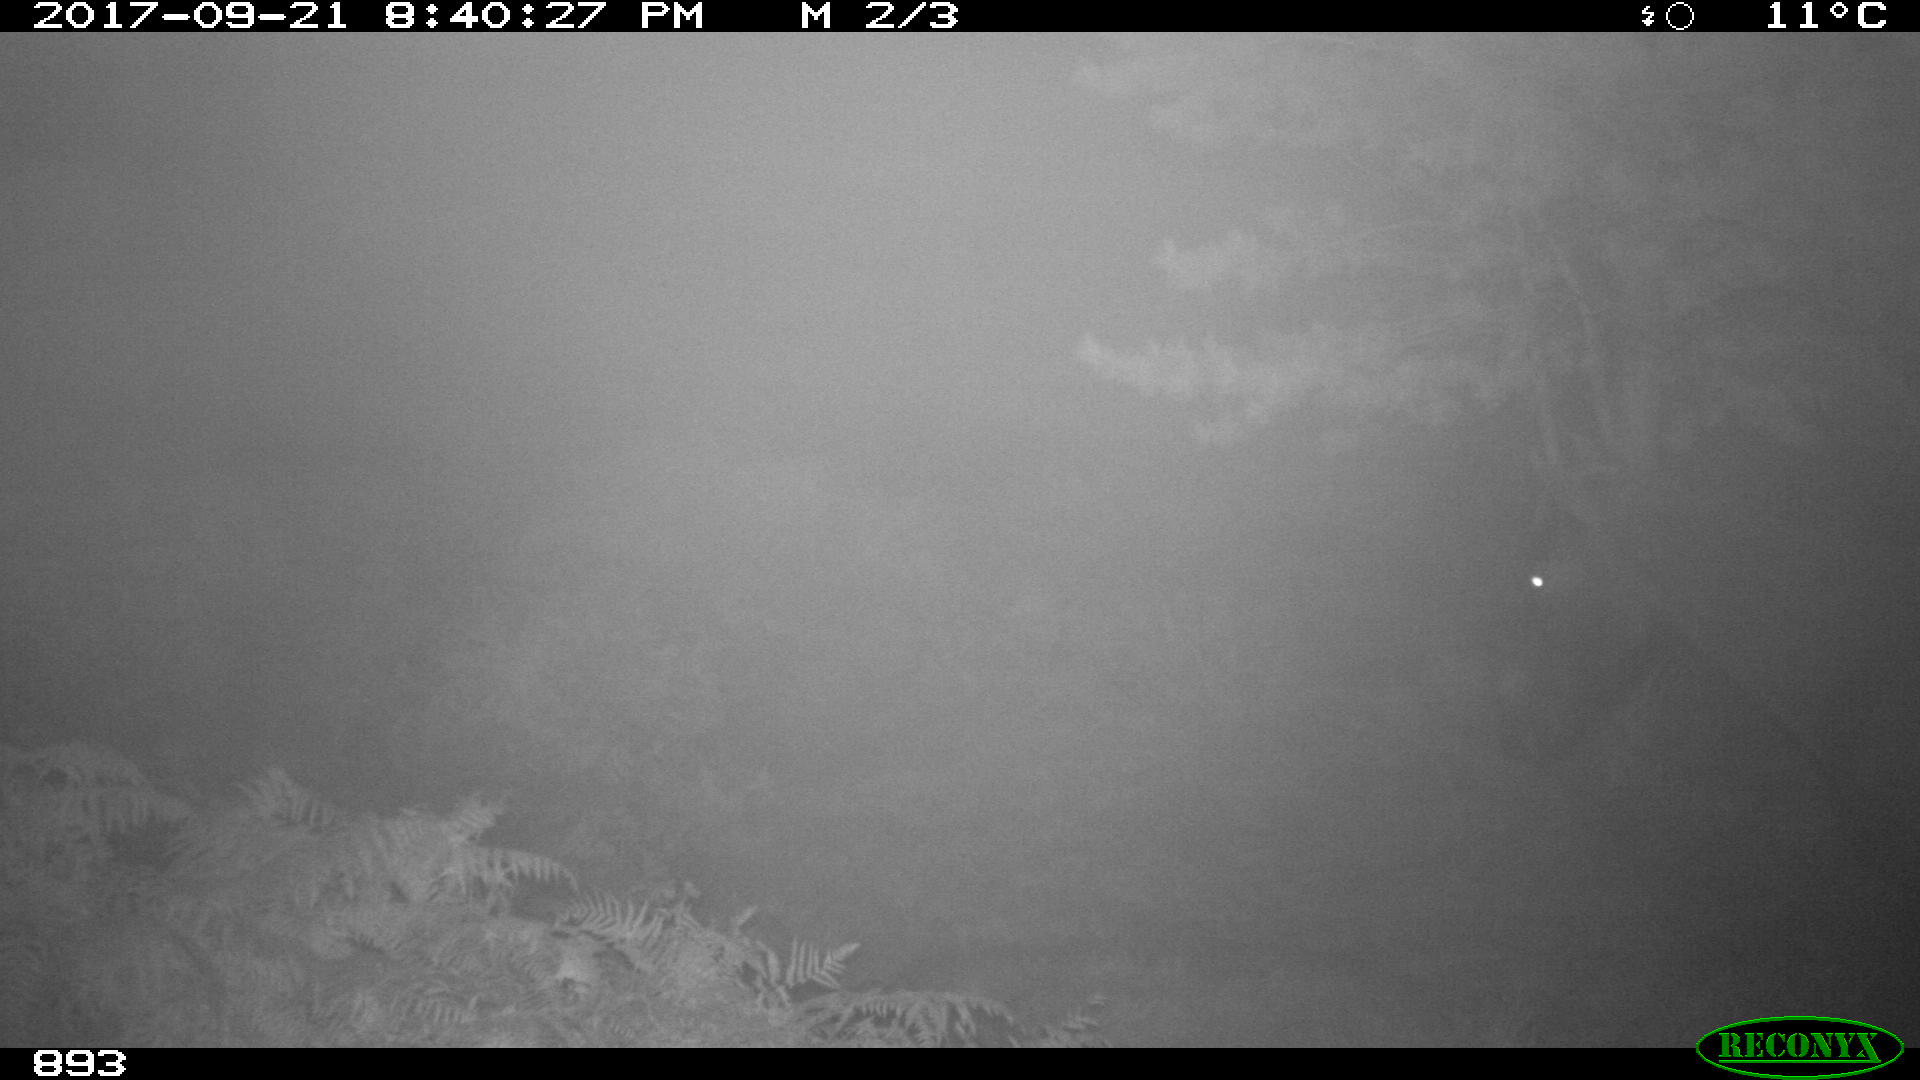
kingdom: Animalia
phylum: Chordata
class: Mammalia
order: Perissodactyla
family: Equidae
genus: Equus
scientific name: Equus caballus
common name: Horse
